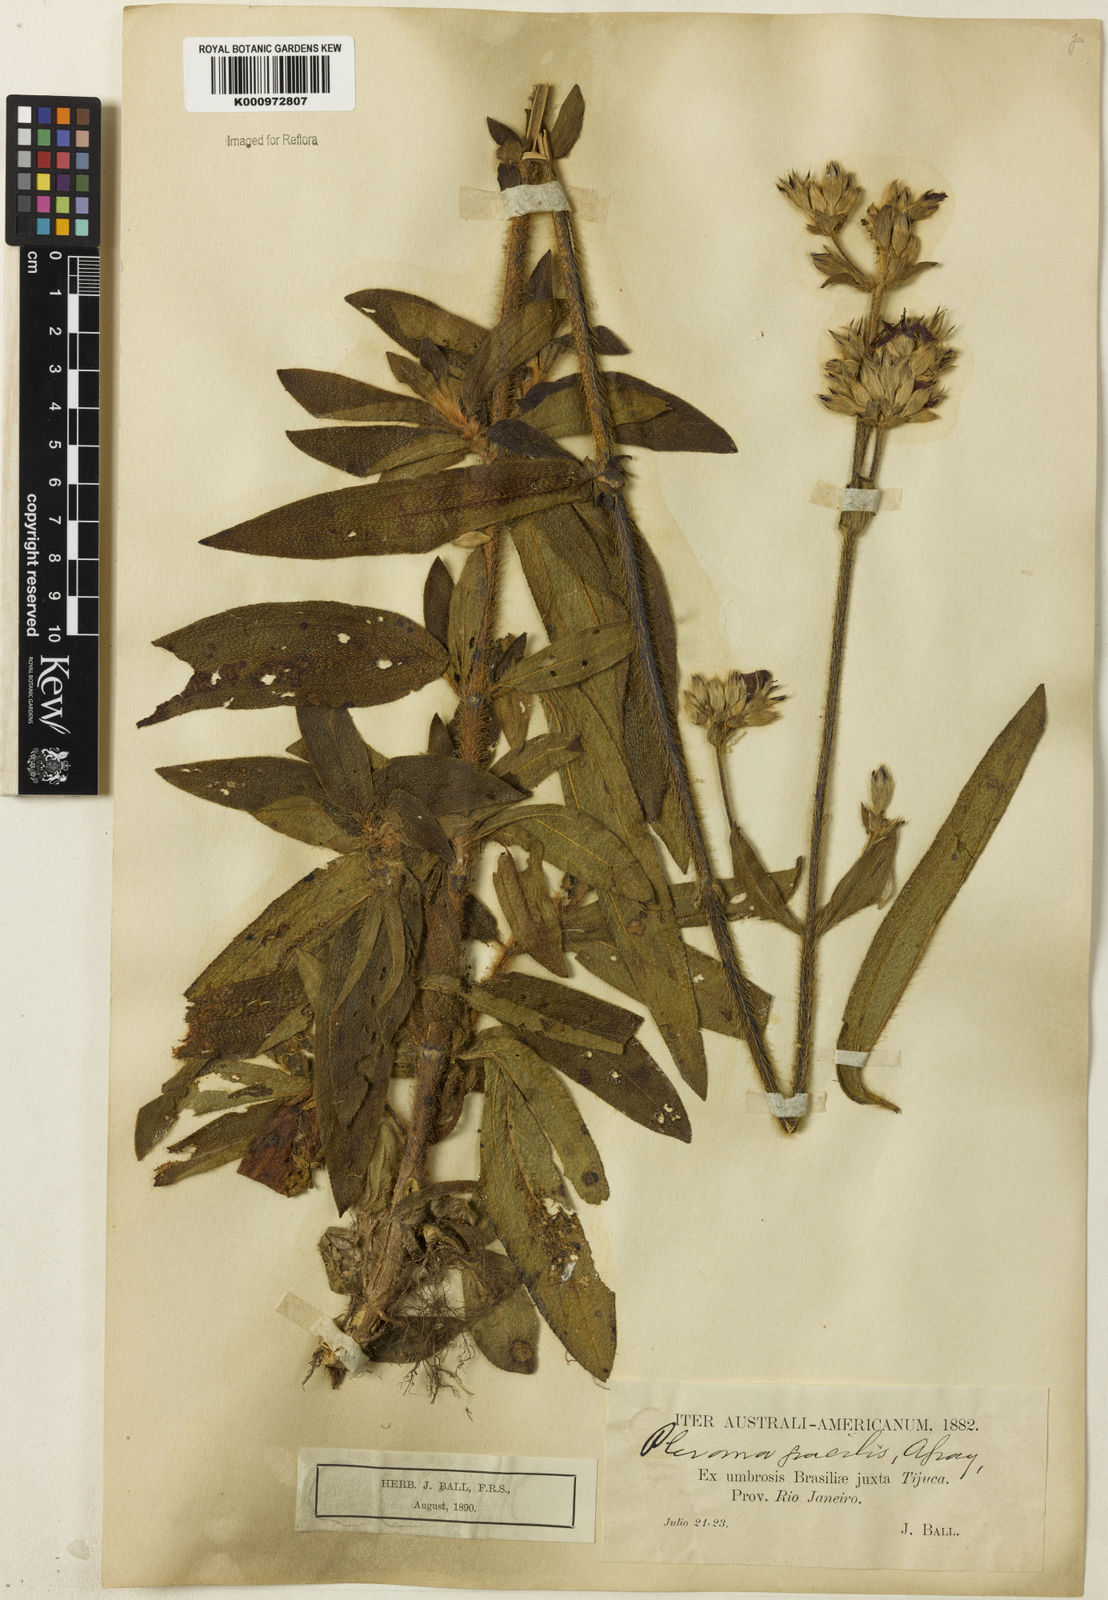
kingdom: Plantae
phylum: Tracheophyta
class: Magnoliopsida
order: Myrtales
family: Melastomataceae
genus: Chaetogastra
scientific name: Chaetogastra gracilis
